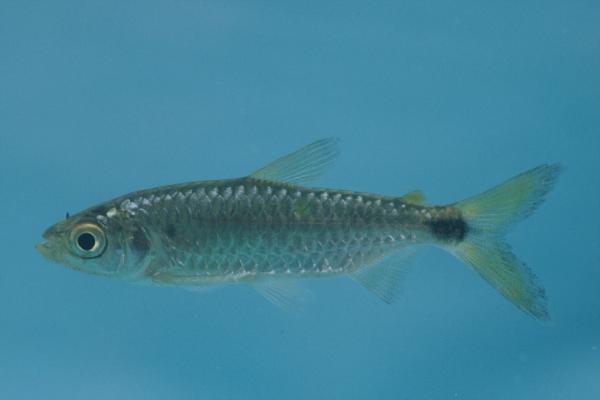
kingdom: Animalia
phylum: Chordata
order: Characiformes
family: Alestidae
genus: Brycinus
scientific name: Brycinus imberi
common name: Imberi
